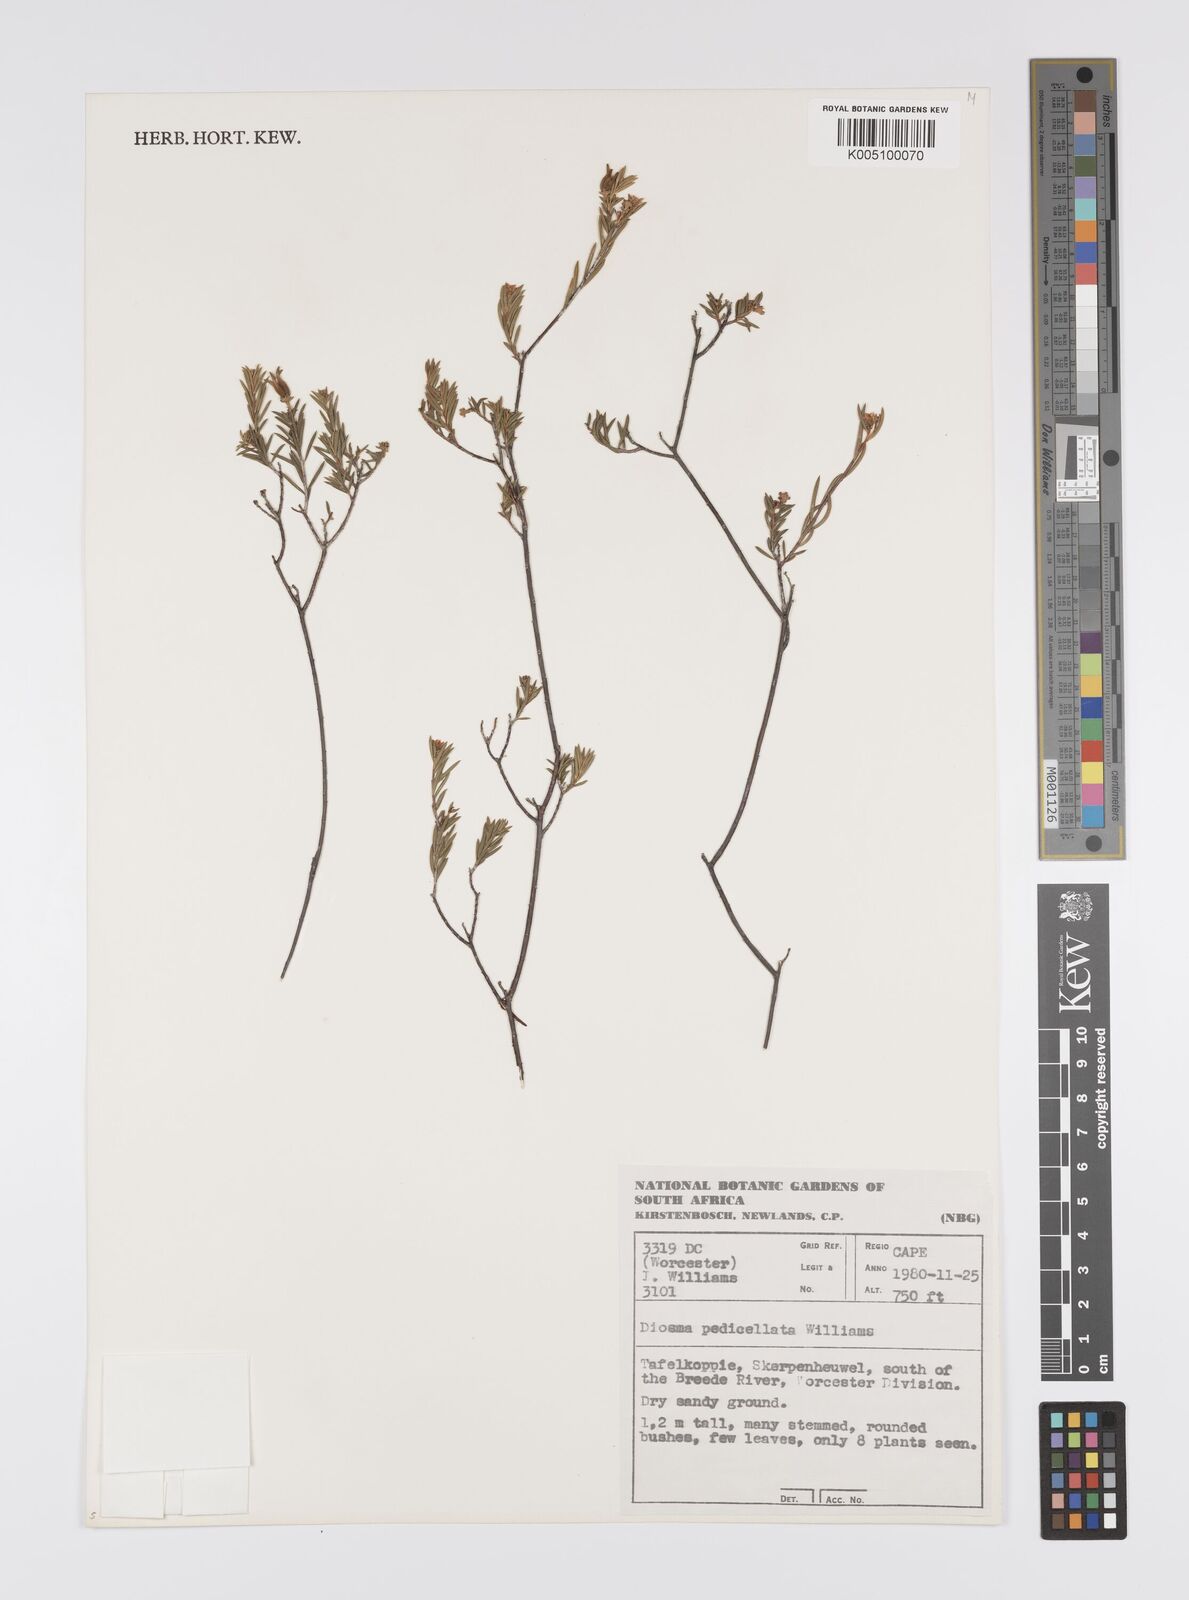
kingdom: Plantae
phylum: Tracheophyta
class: Magnoliopsida
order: Sapindales
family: Rutaceae
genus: Diosma
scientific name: Diosma pedicellata
